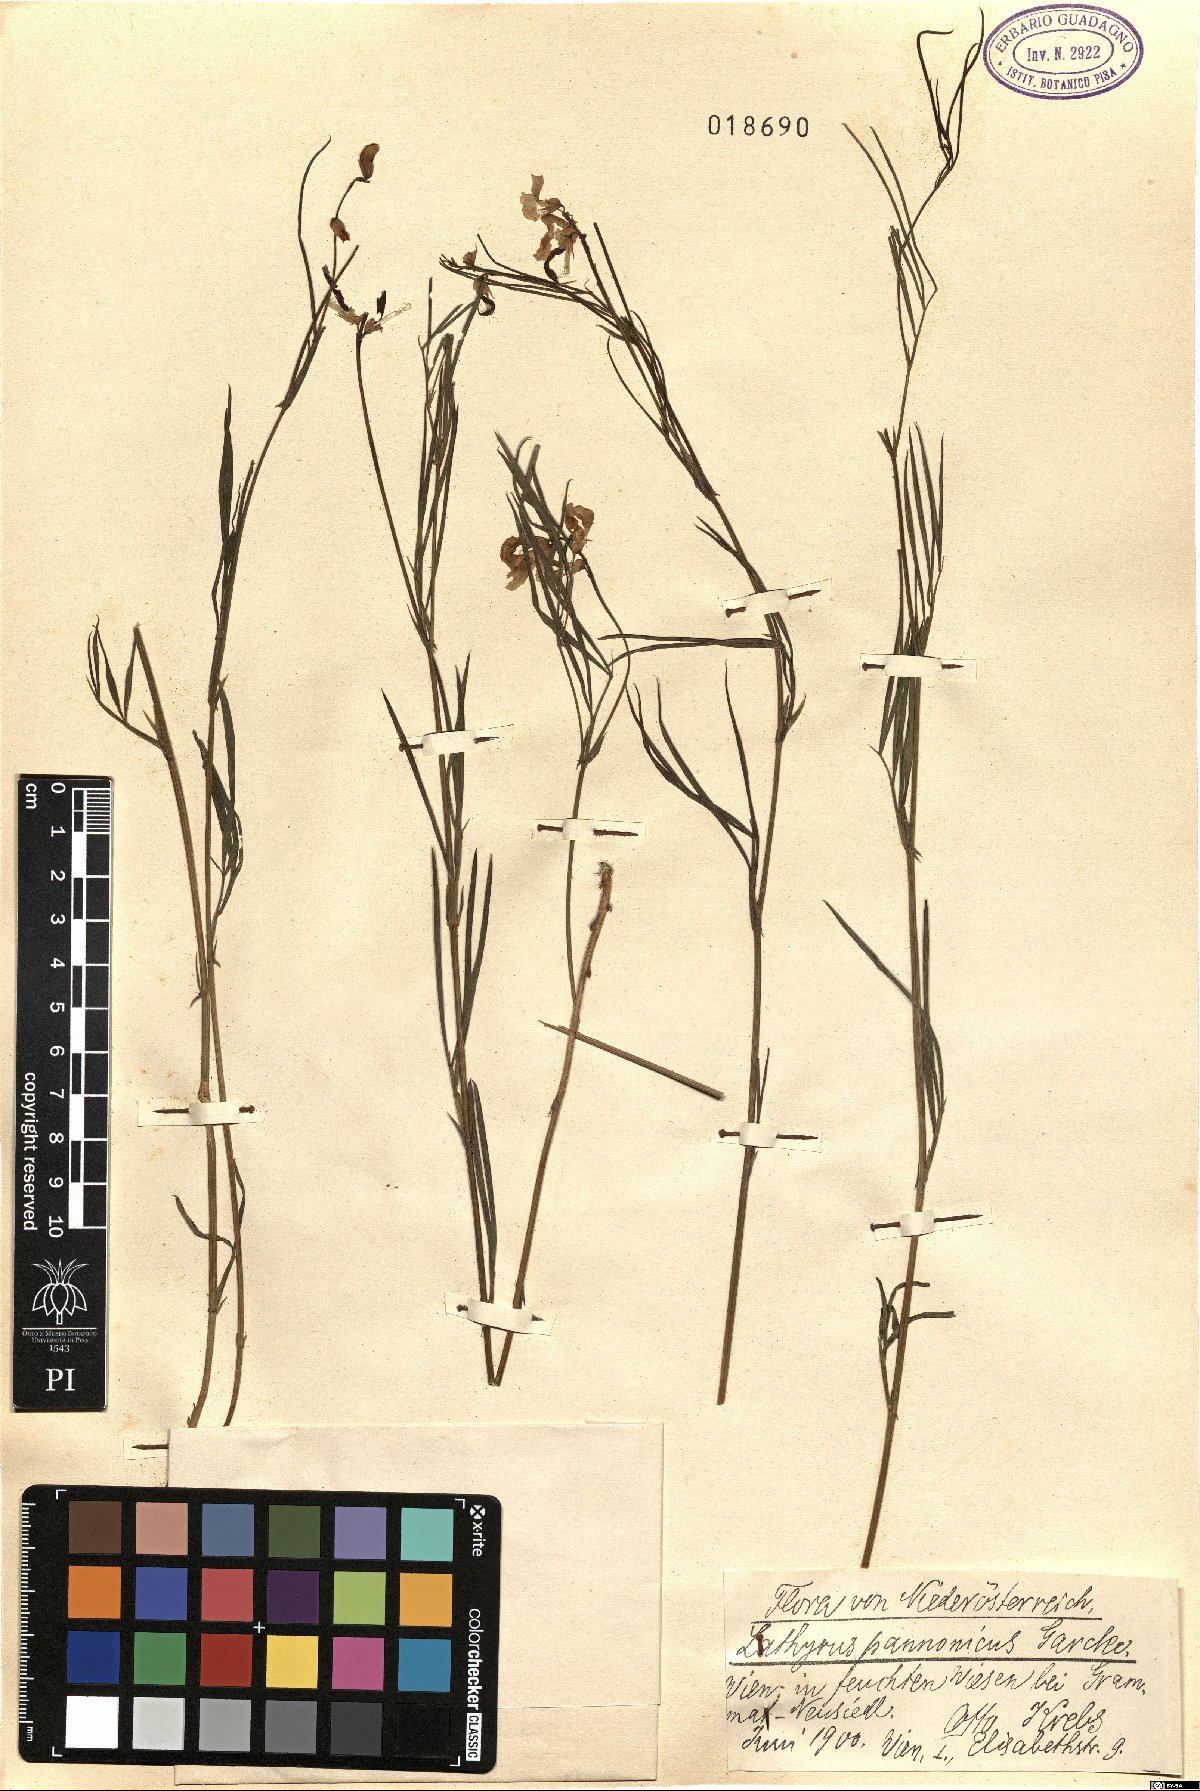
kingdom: Plantae
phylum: Tracheophyta
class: Magnoliopsida
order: Fabales
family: Fabaceae
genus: Lathyrus
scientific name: Lathyrus pannonicus
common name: Pea
